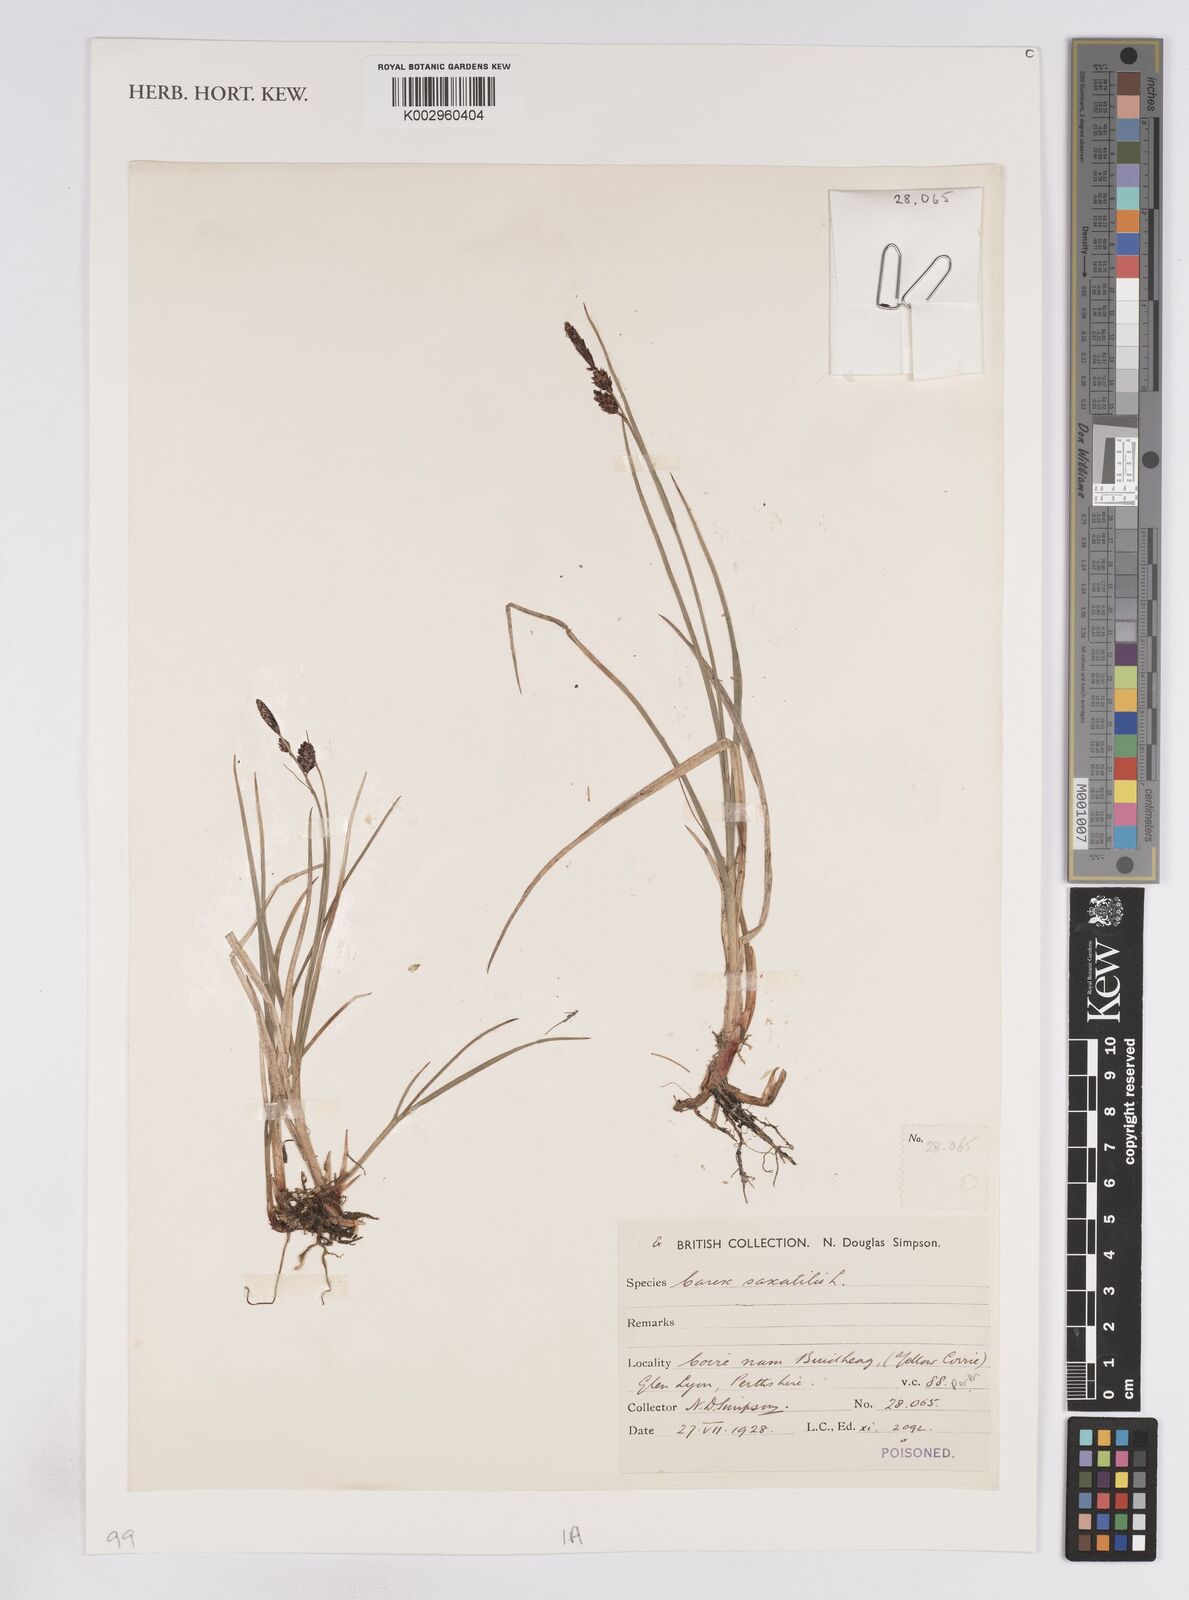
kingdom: Plantae
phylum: Tracheophyta
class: Liliopsida
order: Poales
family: Cyperaceae
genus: Carex
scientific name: Carex saxatilis
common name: Russet sedge
